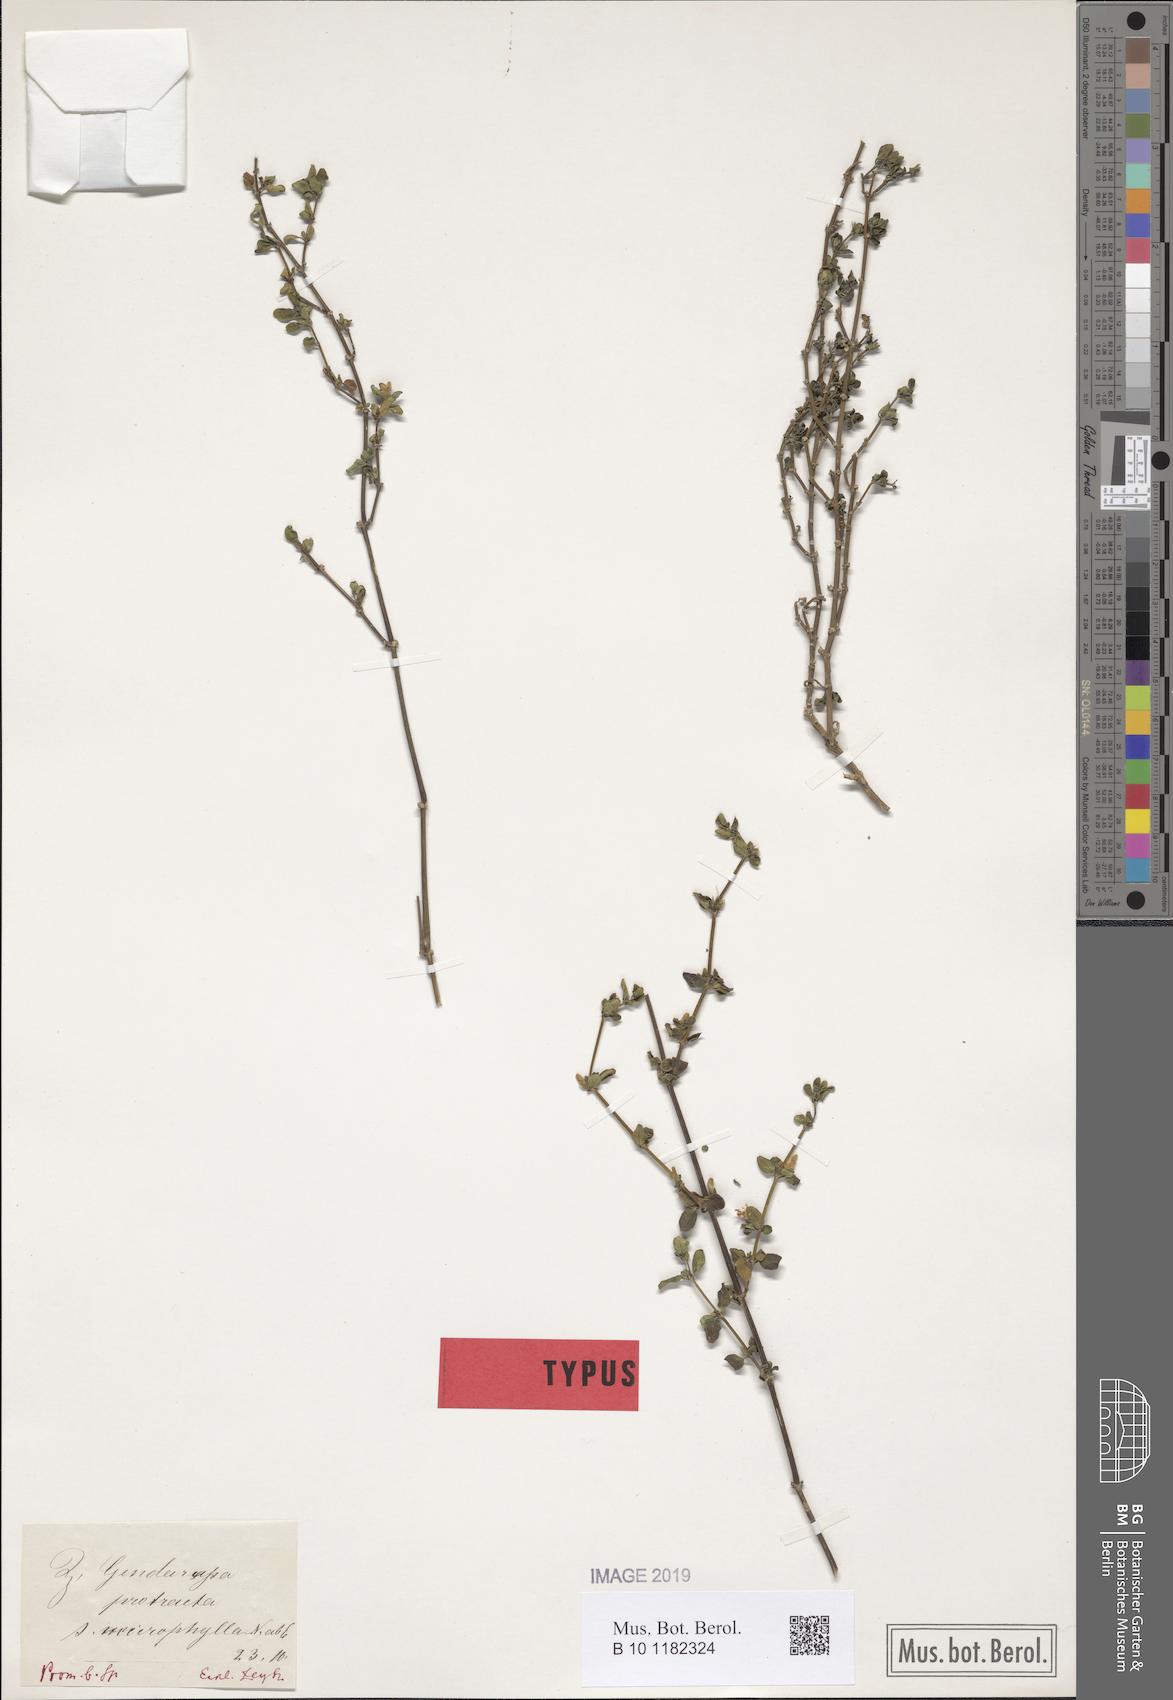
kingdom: Plantae
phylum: Tracheophyta
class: Magnoliopsida
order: Lamiales
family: Acanthaceae
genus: Justicia
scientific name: Justicia protracta
